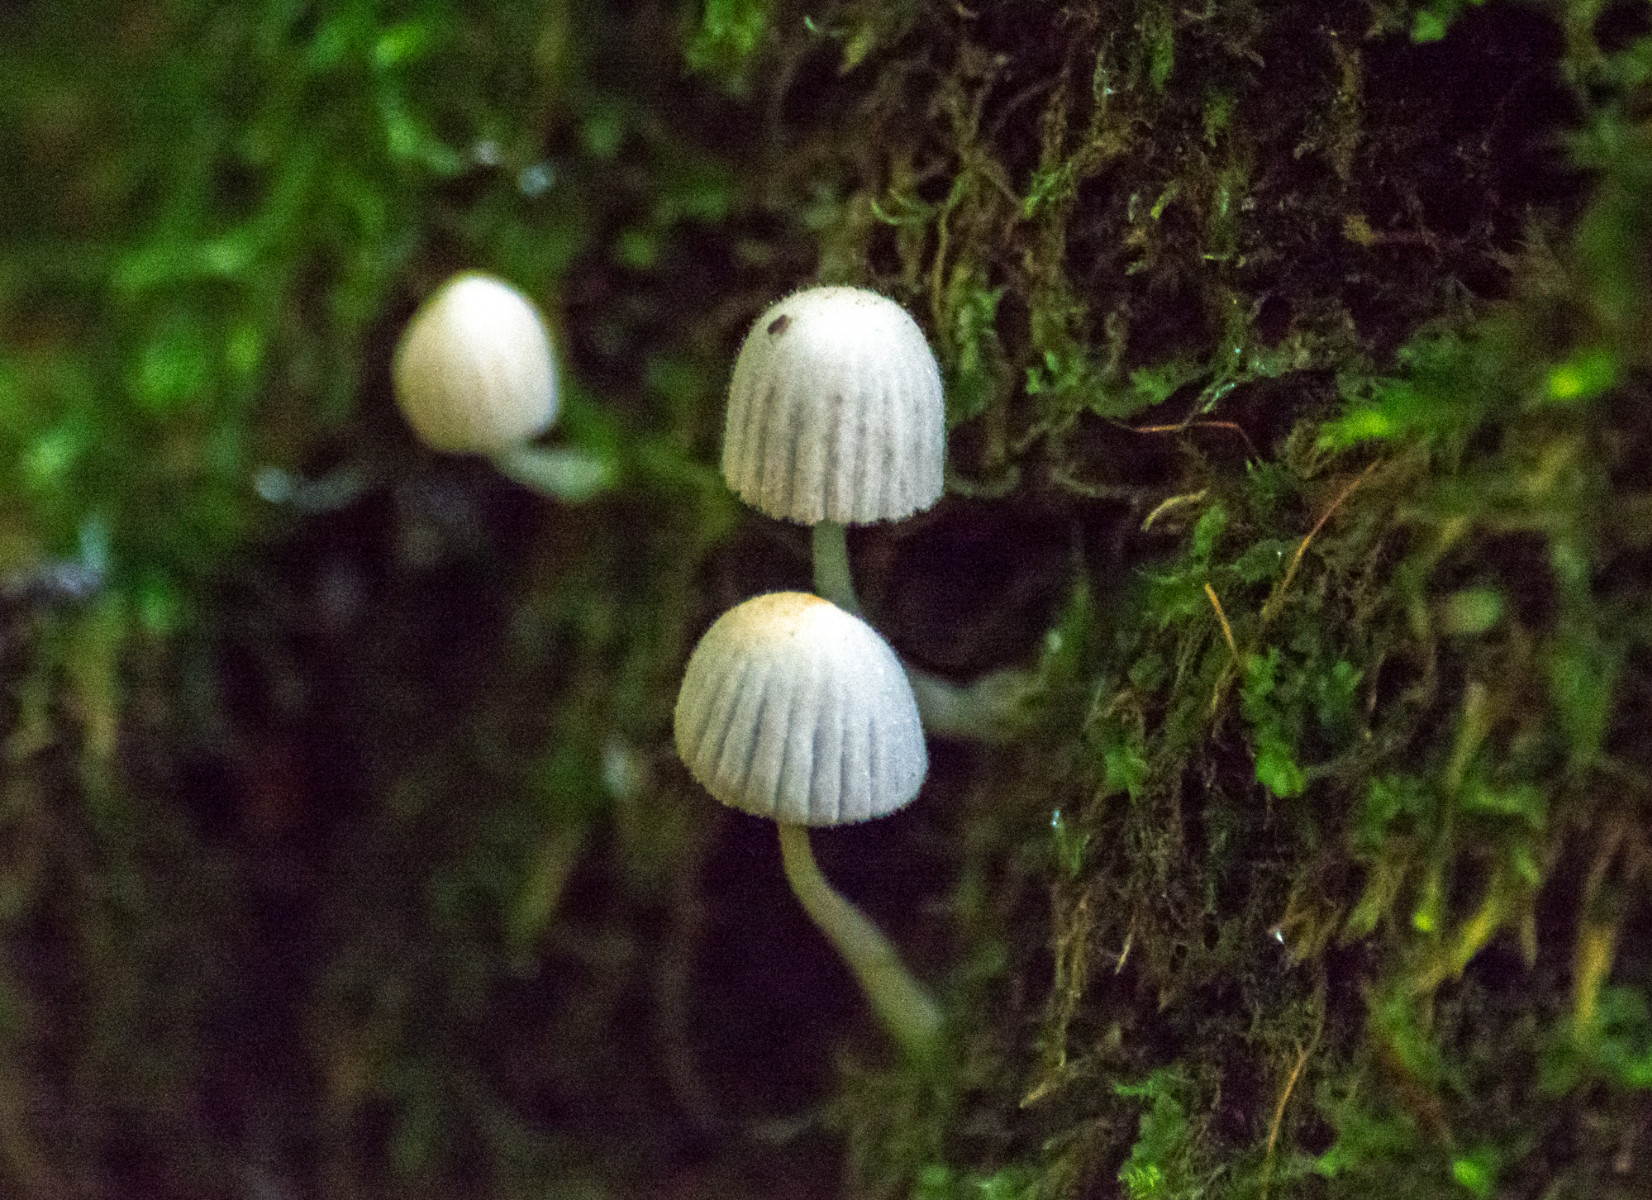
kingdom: Fungi
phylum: Basidiomycota
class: Agaricomycetes
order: Agaricales
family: Psathyrellaceae
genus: Coprinellus
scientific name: Coprinellus
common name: blækhat
